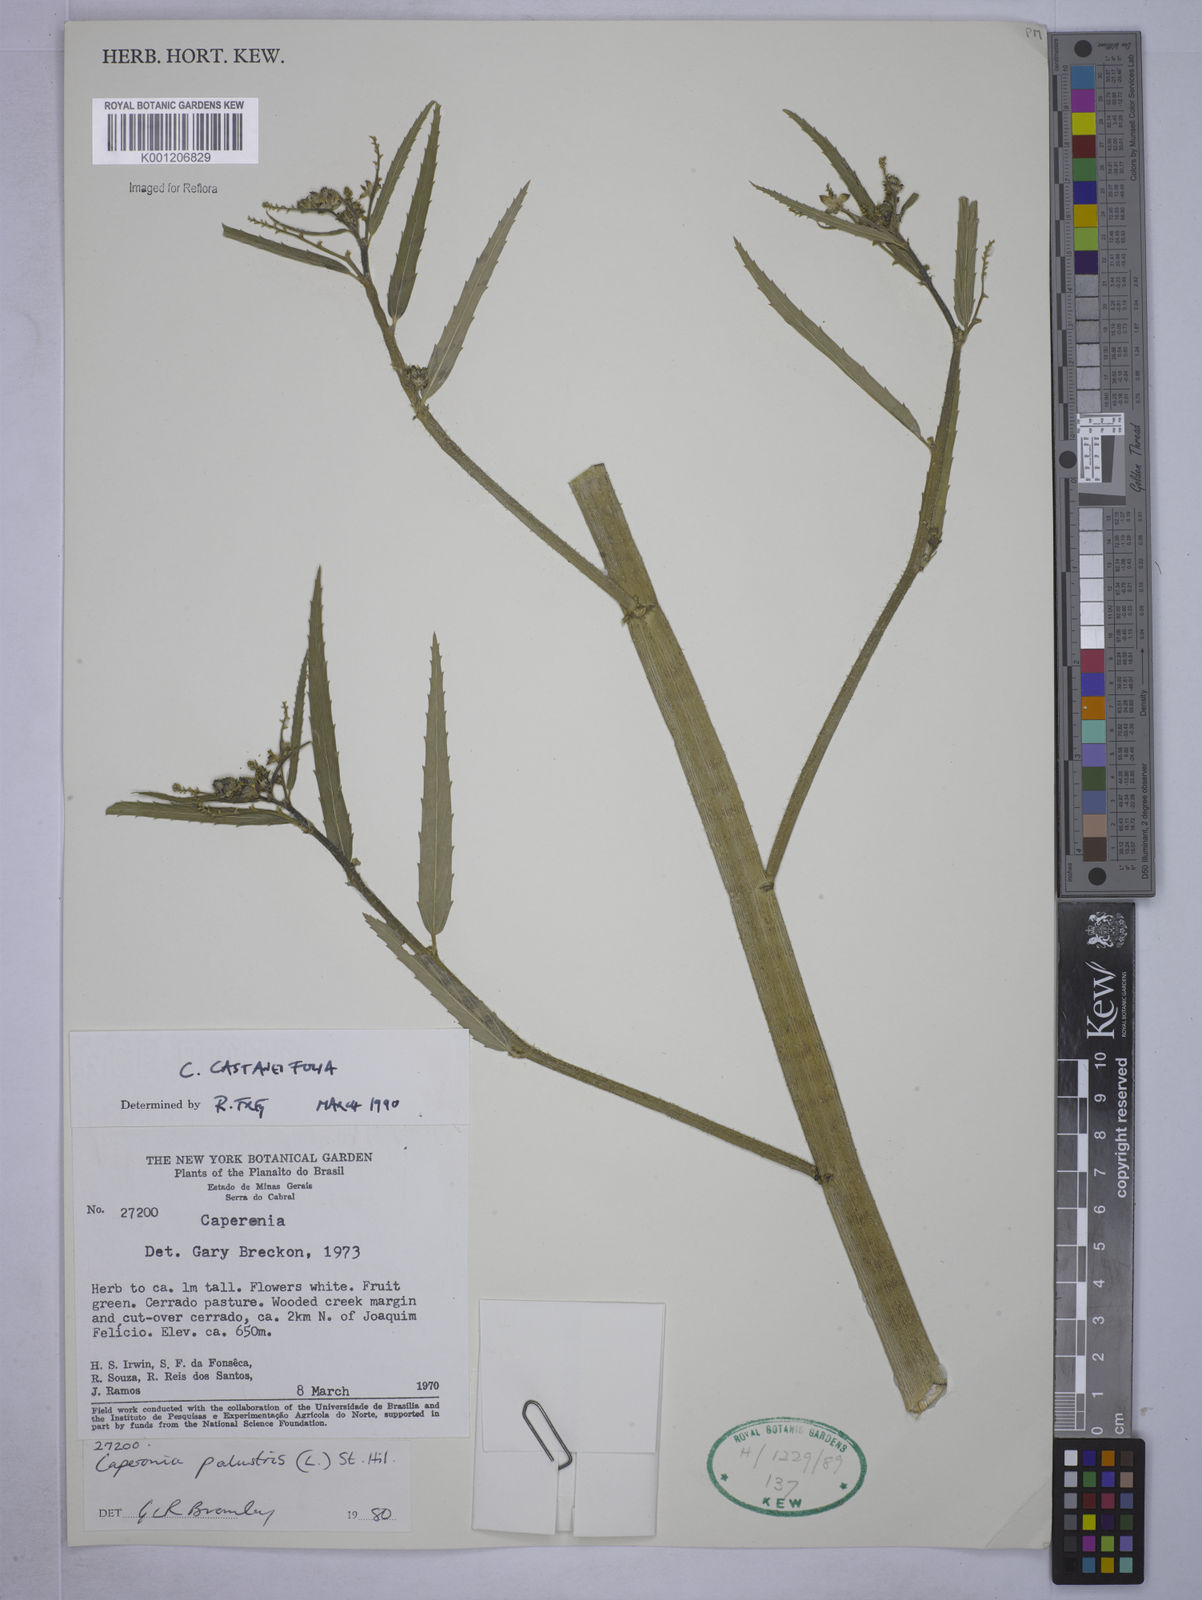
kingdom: Plantae
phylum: Tracheophyta
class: Magnoliopsida
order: Malpighiales
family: Euphorbiaceae
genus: Caperonia
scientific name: Caperonia castaneifolia
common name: Chestnutleaf false croton
